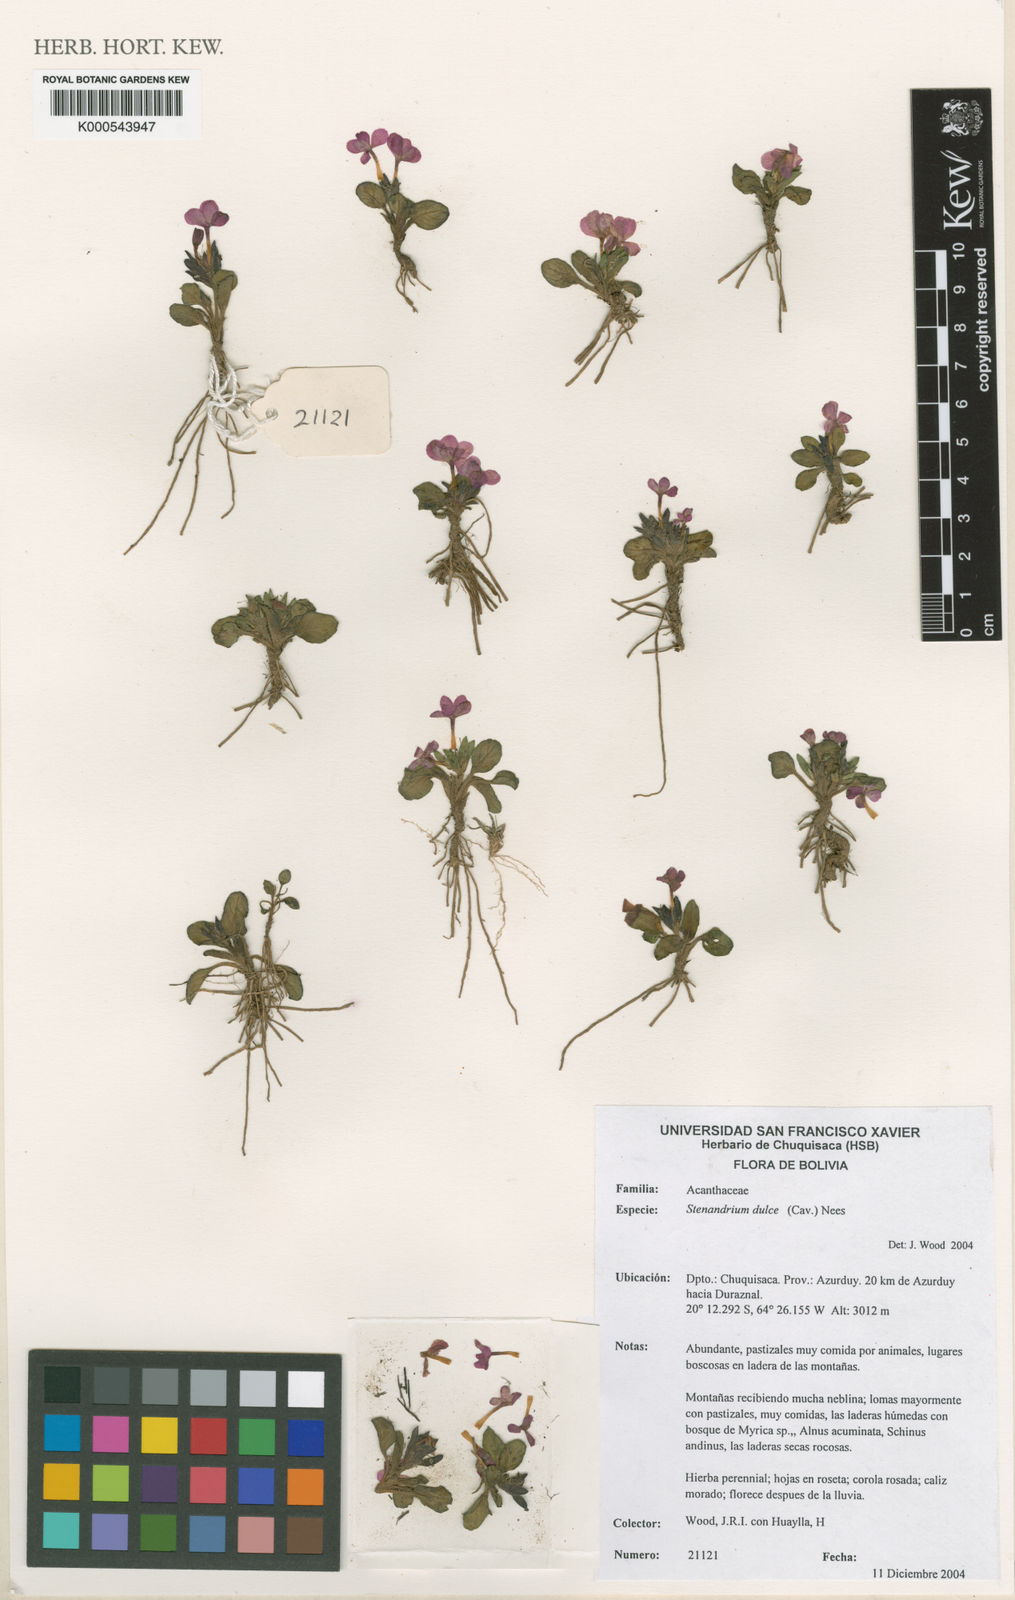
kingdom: Plantae
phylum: Tracheophyta
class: Magnoliopsida
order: Lamiales
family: Acanthaceae
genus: Stenandrium
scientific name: Stenandrium dulce
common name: Pinklet
